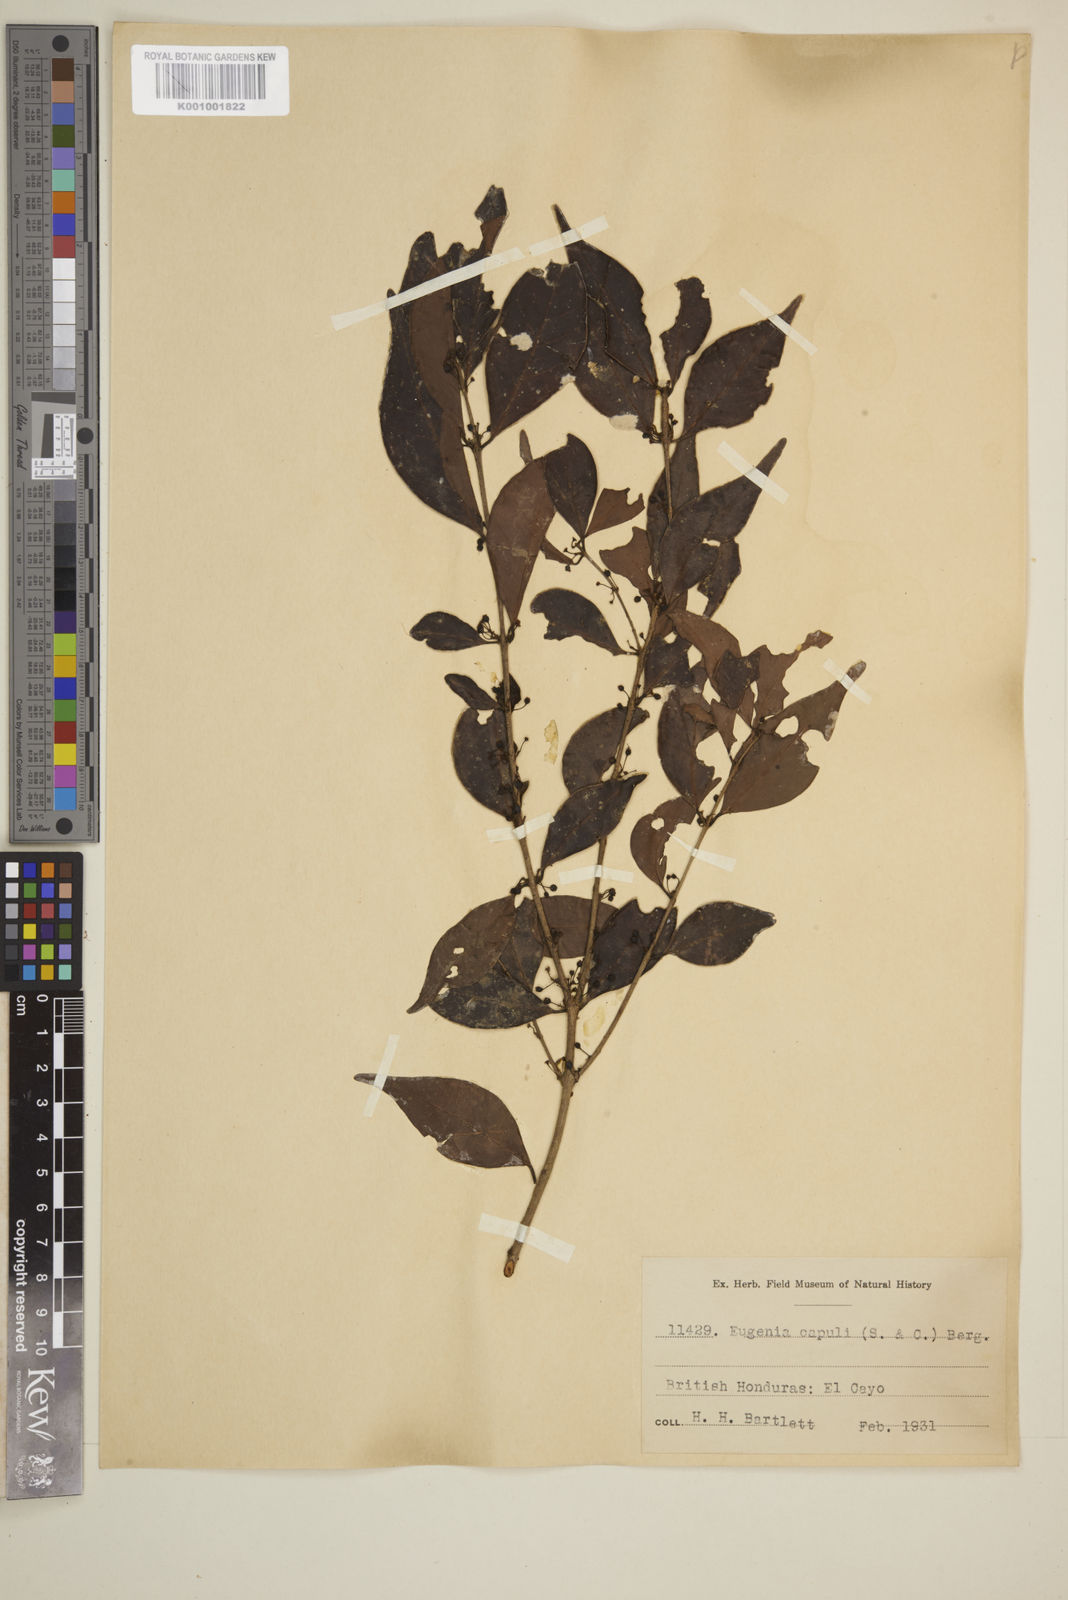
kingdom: Plantae
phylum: Tracheophyta
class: Magnoliopsida
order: Myrtales
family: Myrtaceae
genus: Eugenia
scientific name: Eugenia capuli
